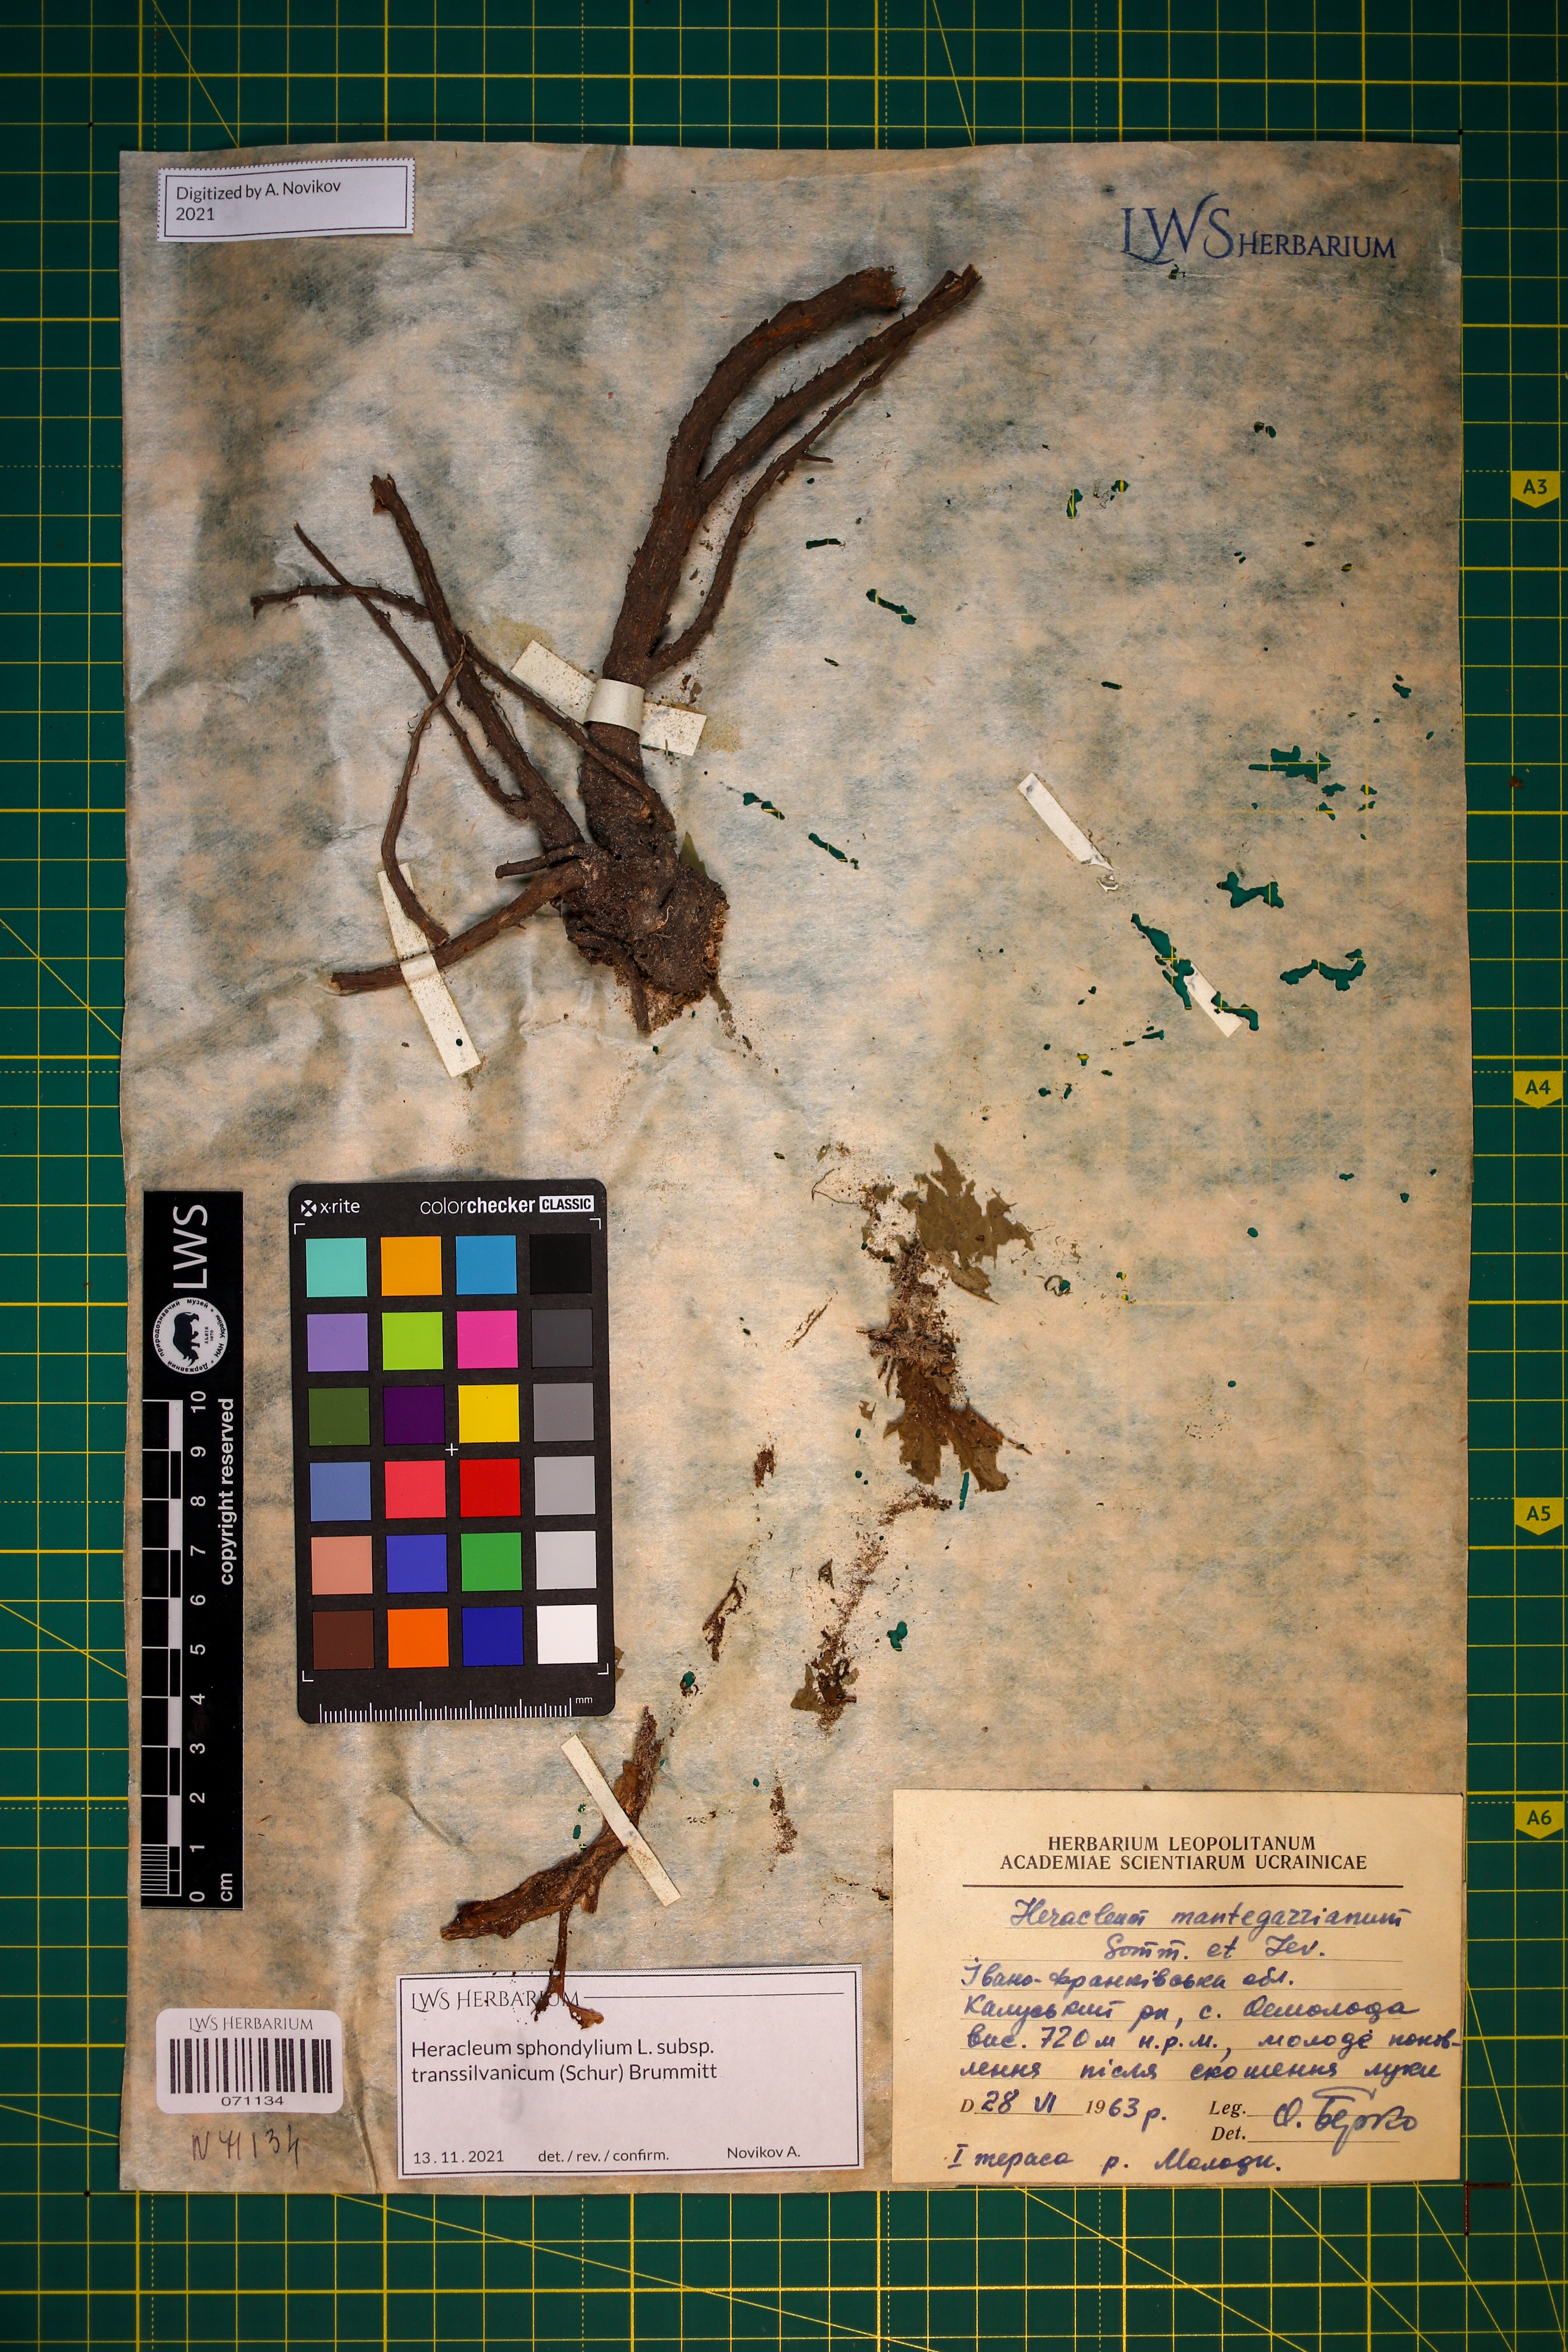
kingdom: Plantae
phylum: Tracheophyta
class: Magnoliopsida
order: Apiales
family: Apiaceae
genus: Heracleum
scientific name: Heracleum sphondylium
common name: Hogweed
